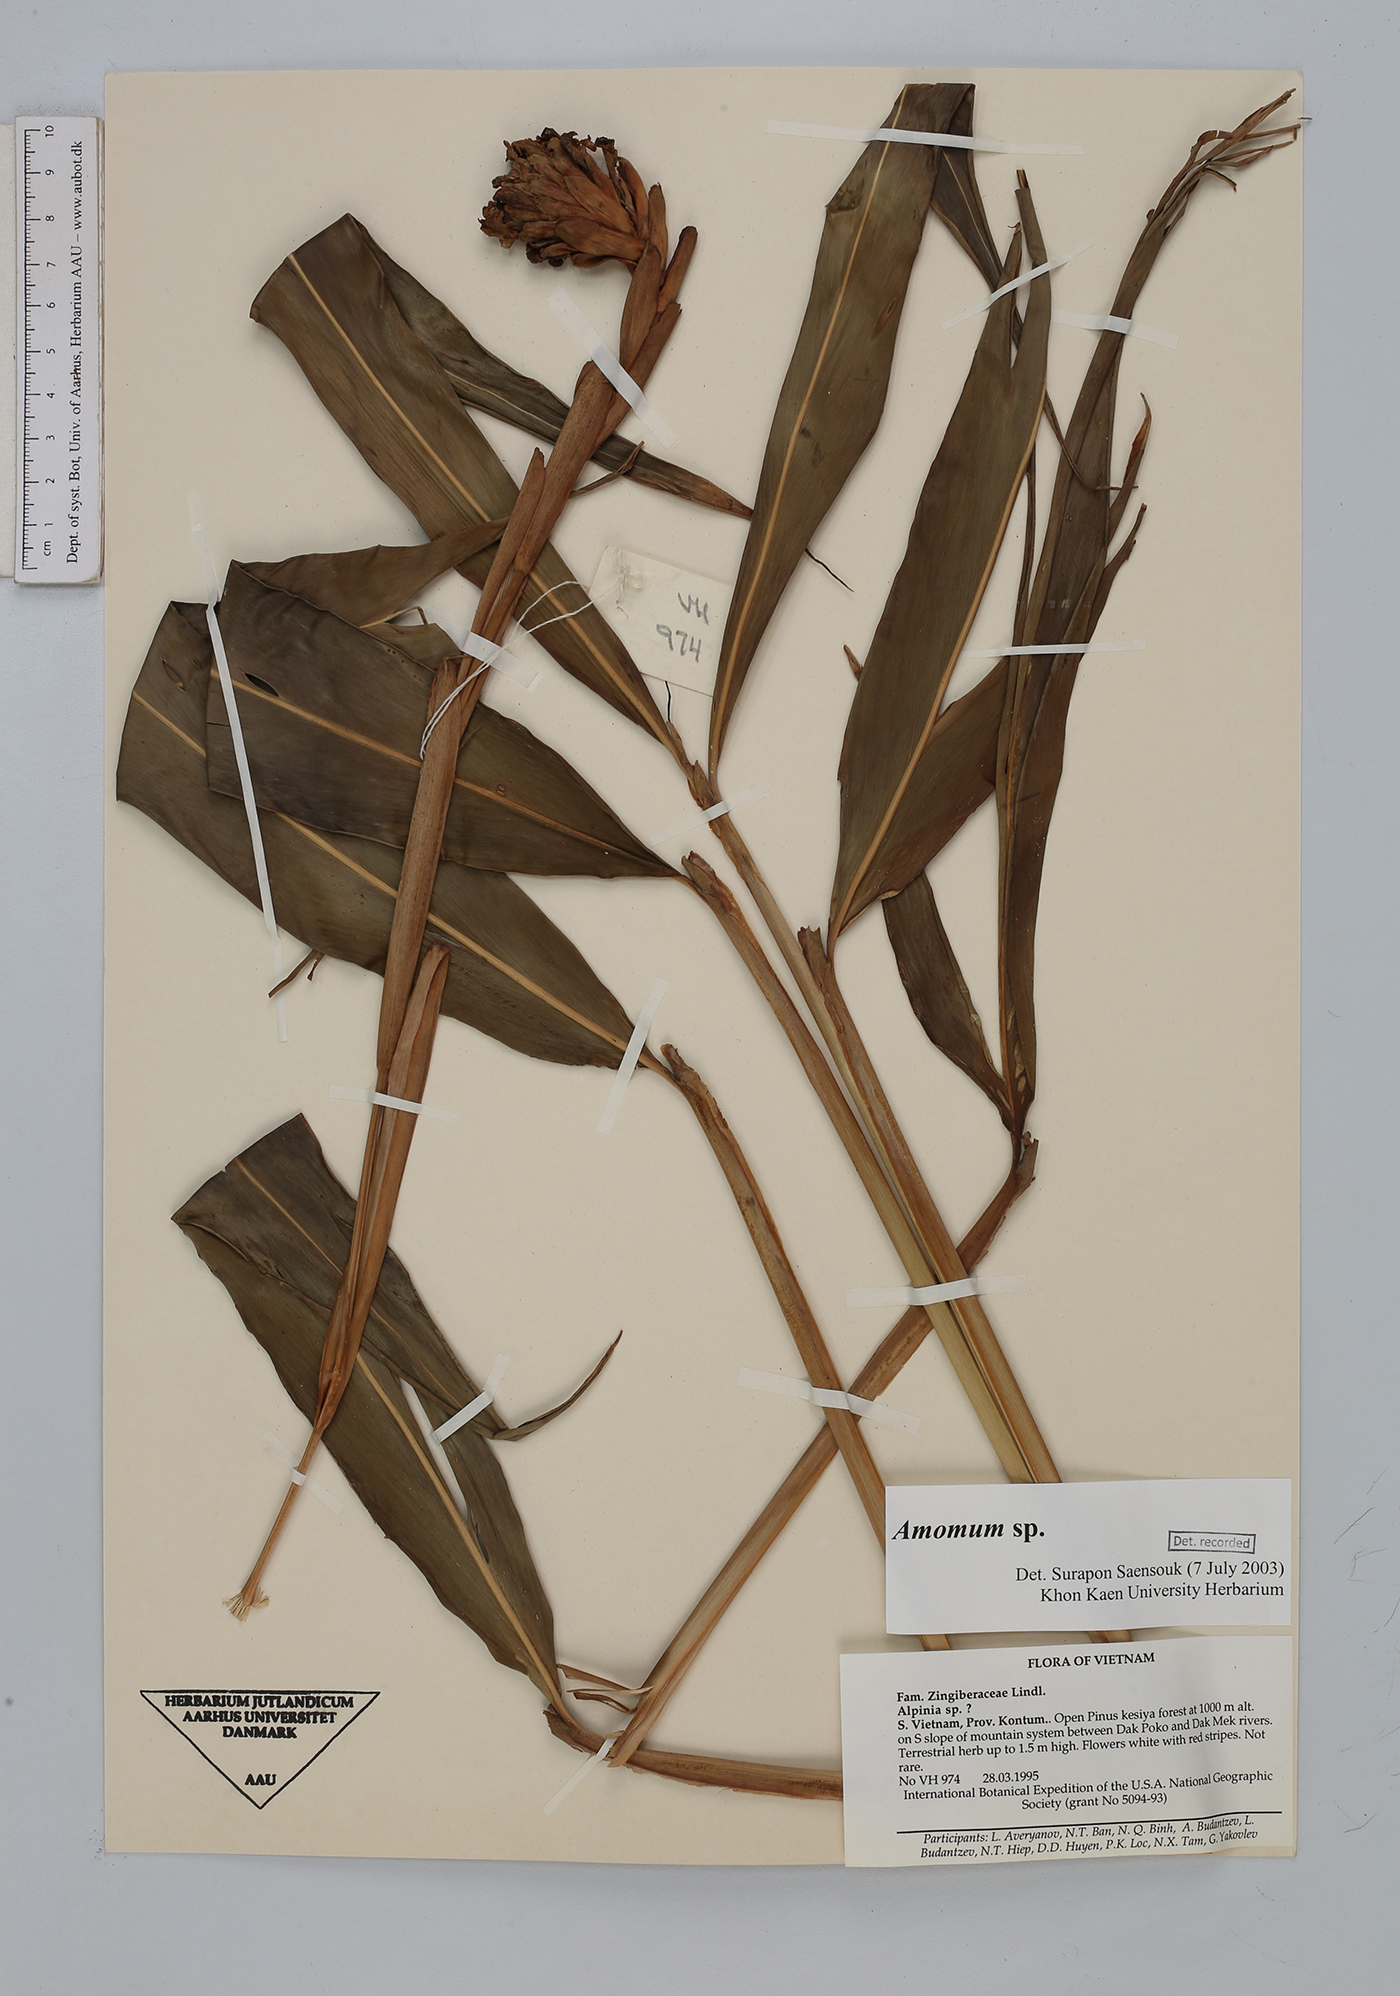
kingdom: Plantae
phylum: Tracheophyta
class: Liliopsida
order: Zingiberales
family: Zingiberaceae
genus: Amomum
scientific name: Amomum
